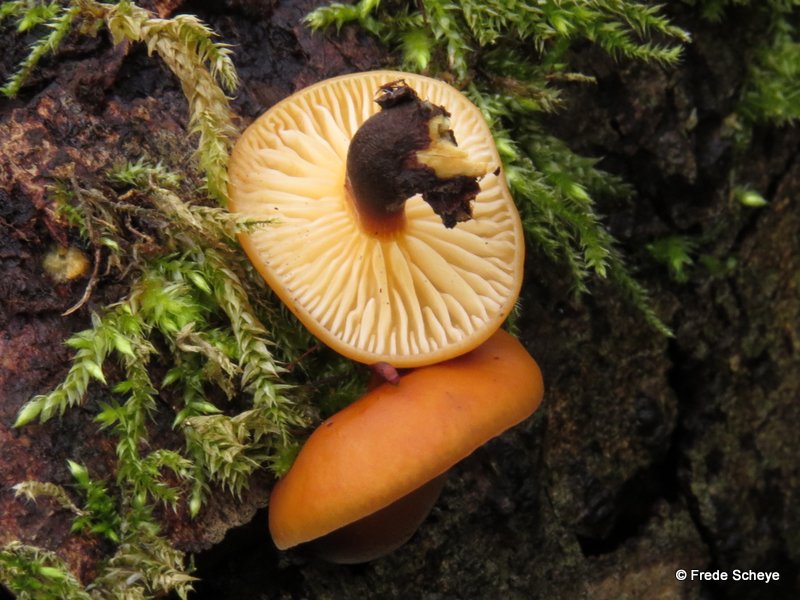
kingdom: Fungi
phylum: Basidiomycota
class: Agaricomycetes
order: Agaricales
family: Physalacriaceae
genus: Flammulina
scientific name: Flammulina elastica
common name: pile-fløjlsfod
